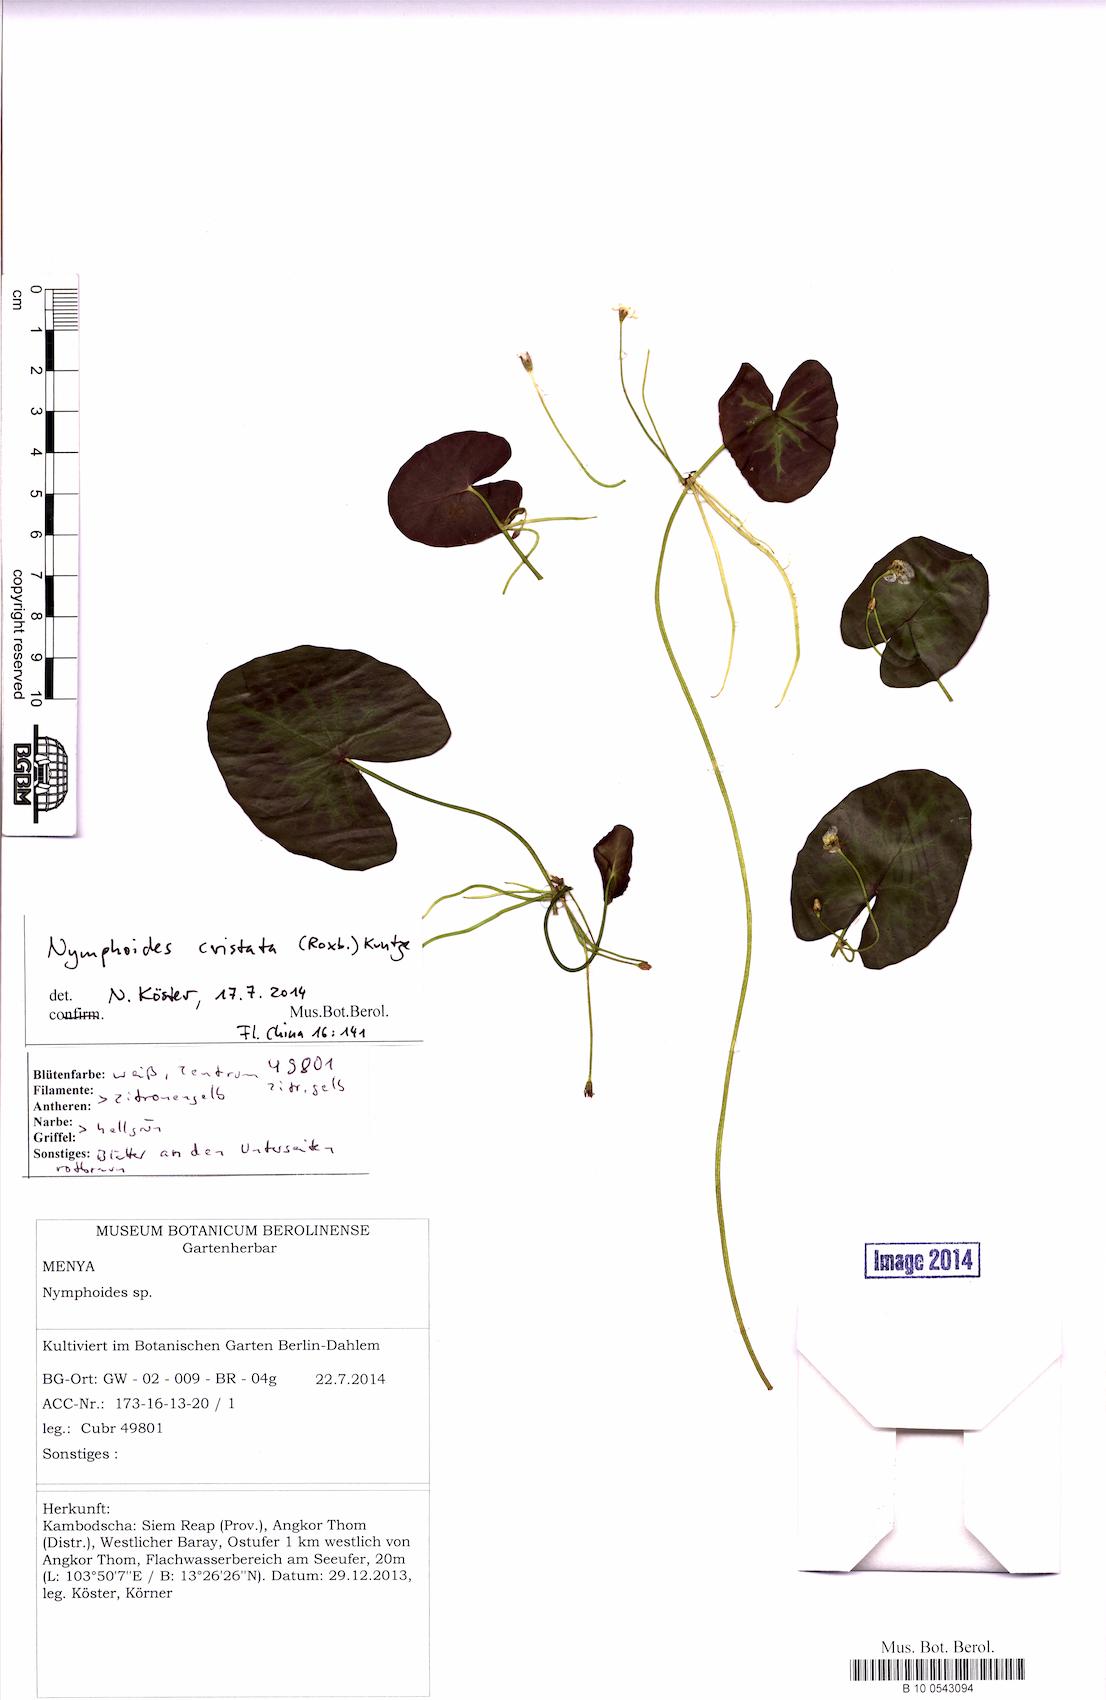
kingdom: Plantae
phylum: Tracheophyta
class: Magnoliopsida
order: Asterales
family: Menyanthaceae
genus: Nymphoides
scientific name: Nymphoides hydrophylla
